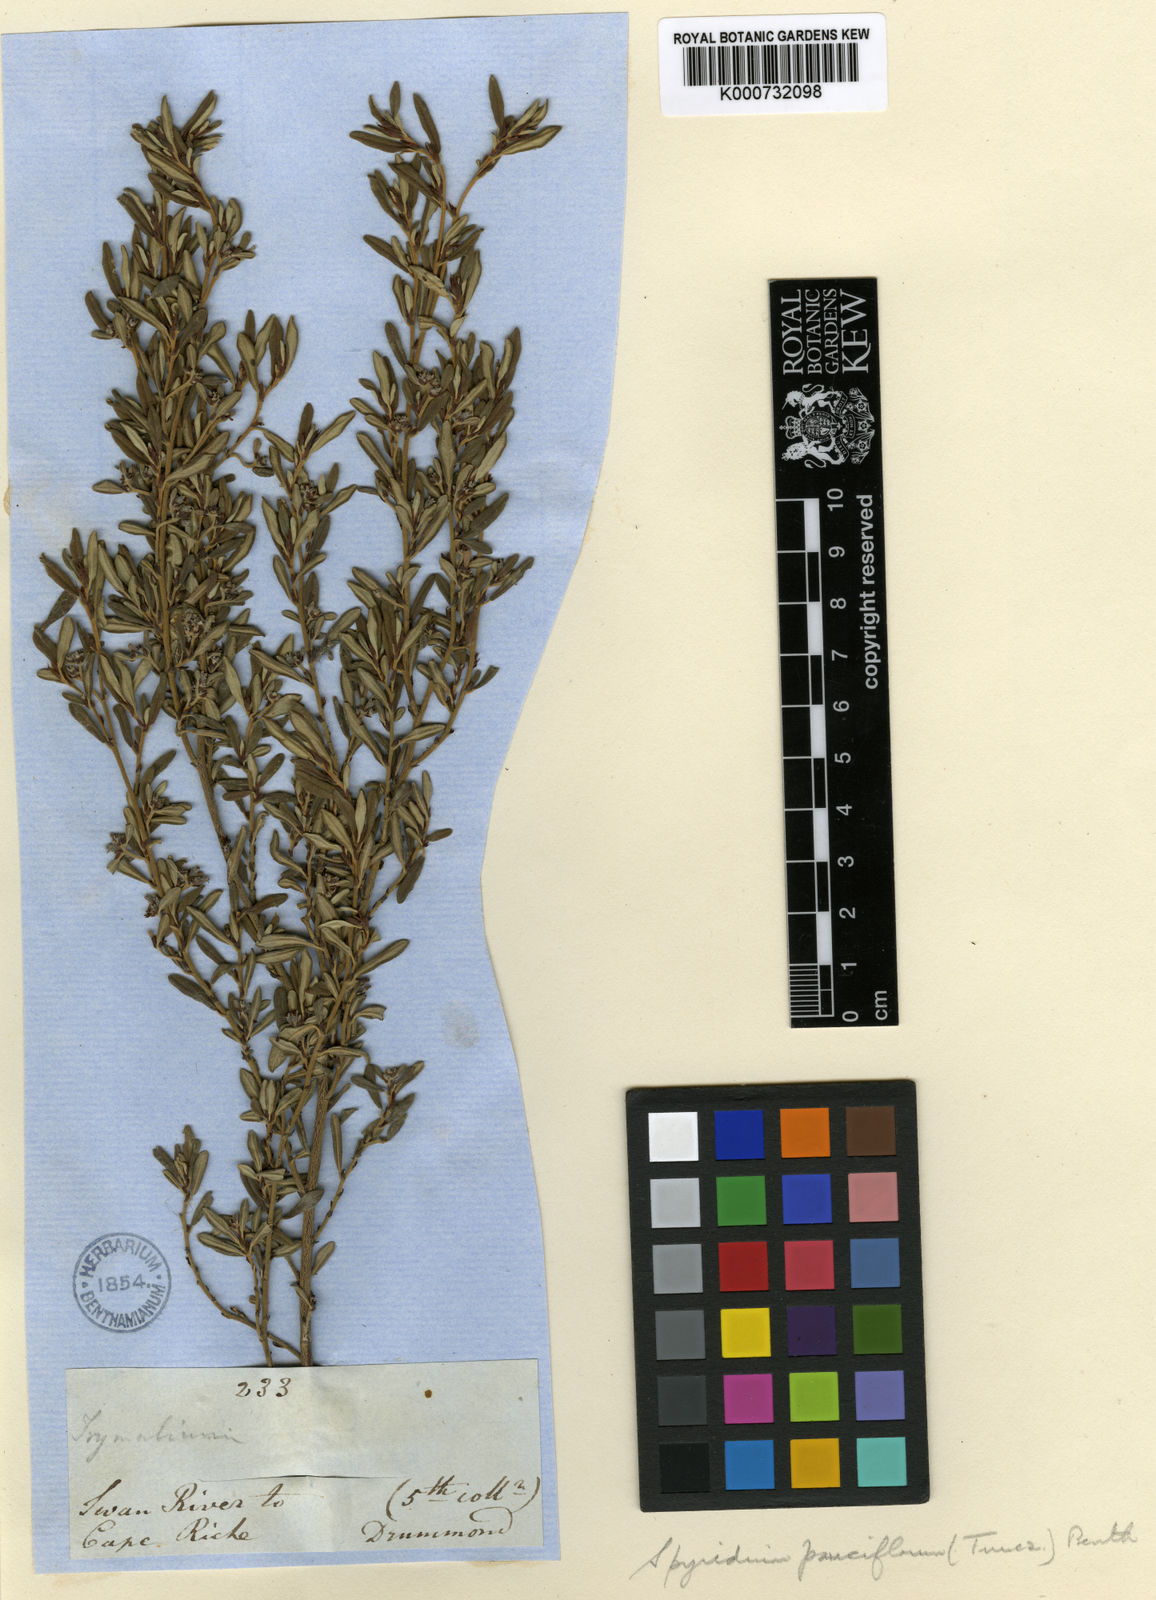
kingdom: Plantae
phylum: Tracheophyta
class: Magnoliopsida
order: Rosales
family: Rhamnaceae
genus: Spyridium
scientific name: Spyridium
